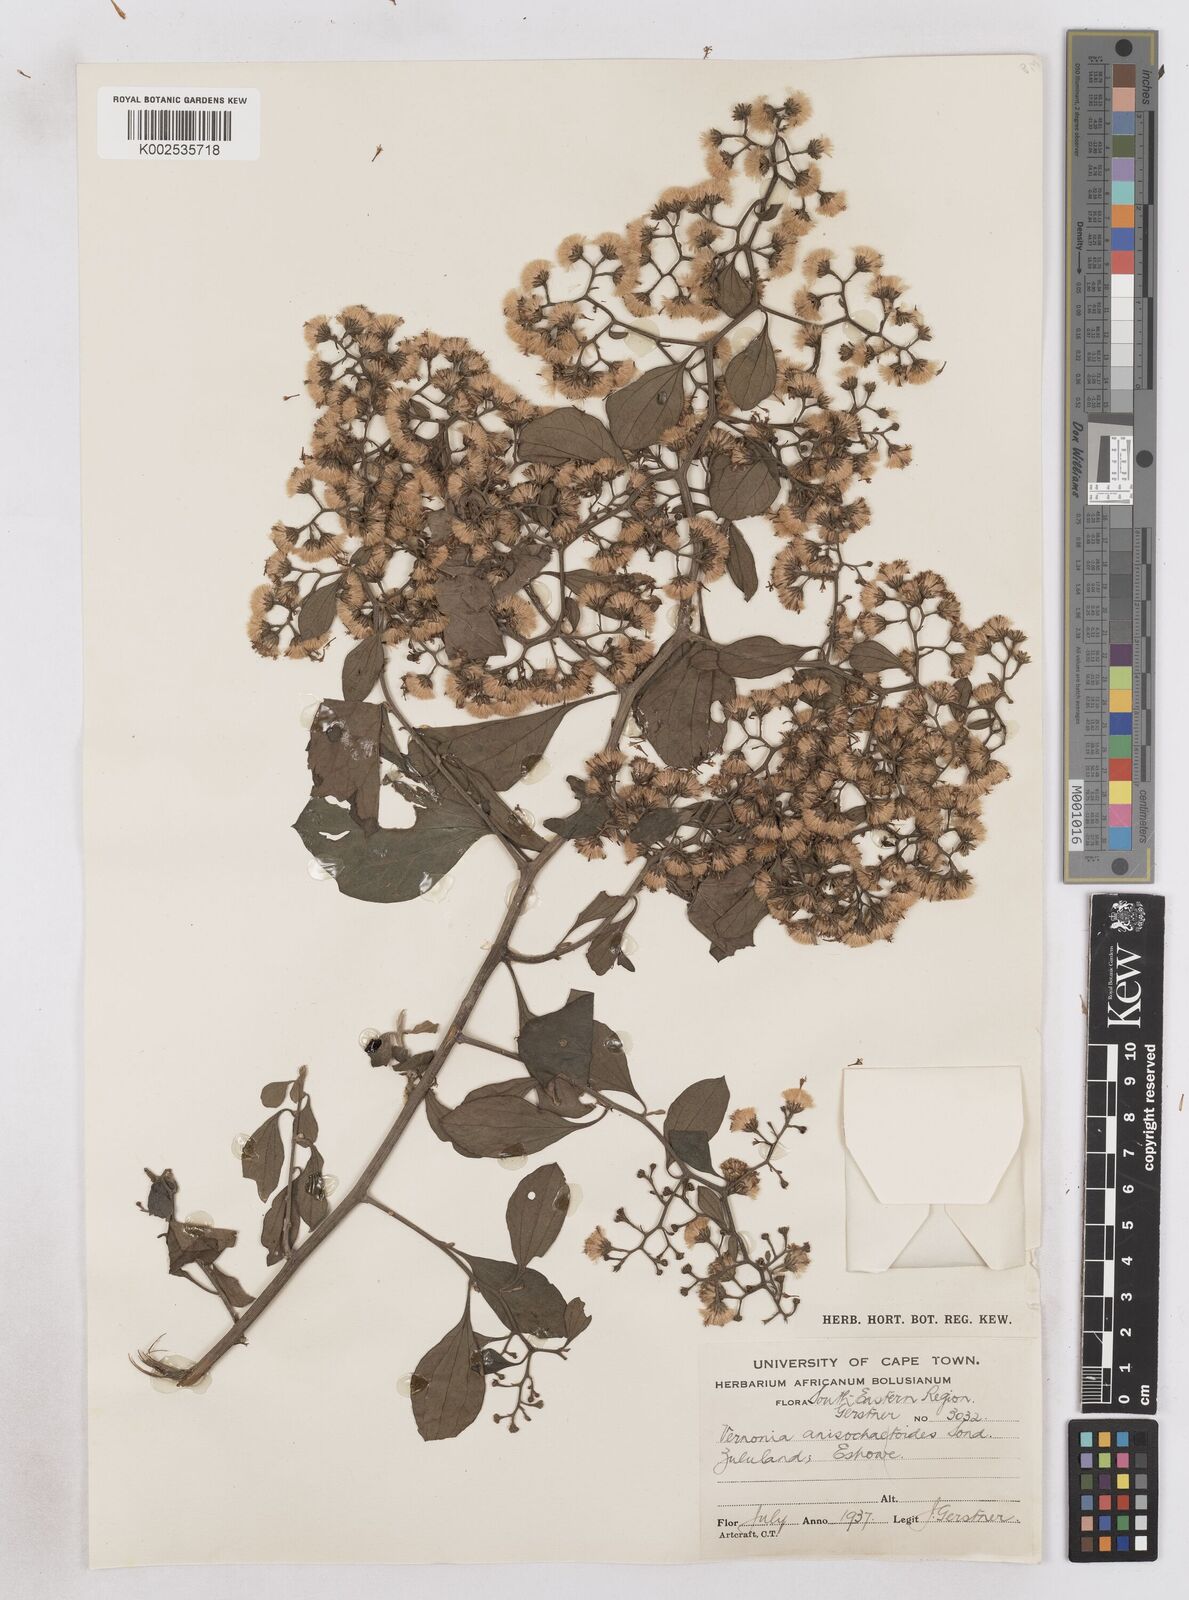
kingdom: Plantae
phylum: Tracheophyta
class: Magnoliopsida
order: Asterales
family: Asteraceae
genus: Distephanus
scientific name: Distephanus anisochaetoides
